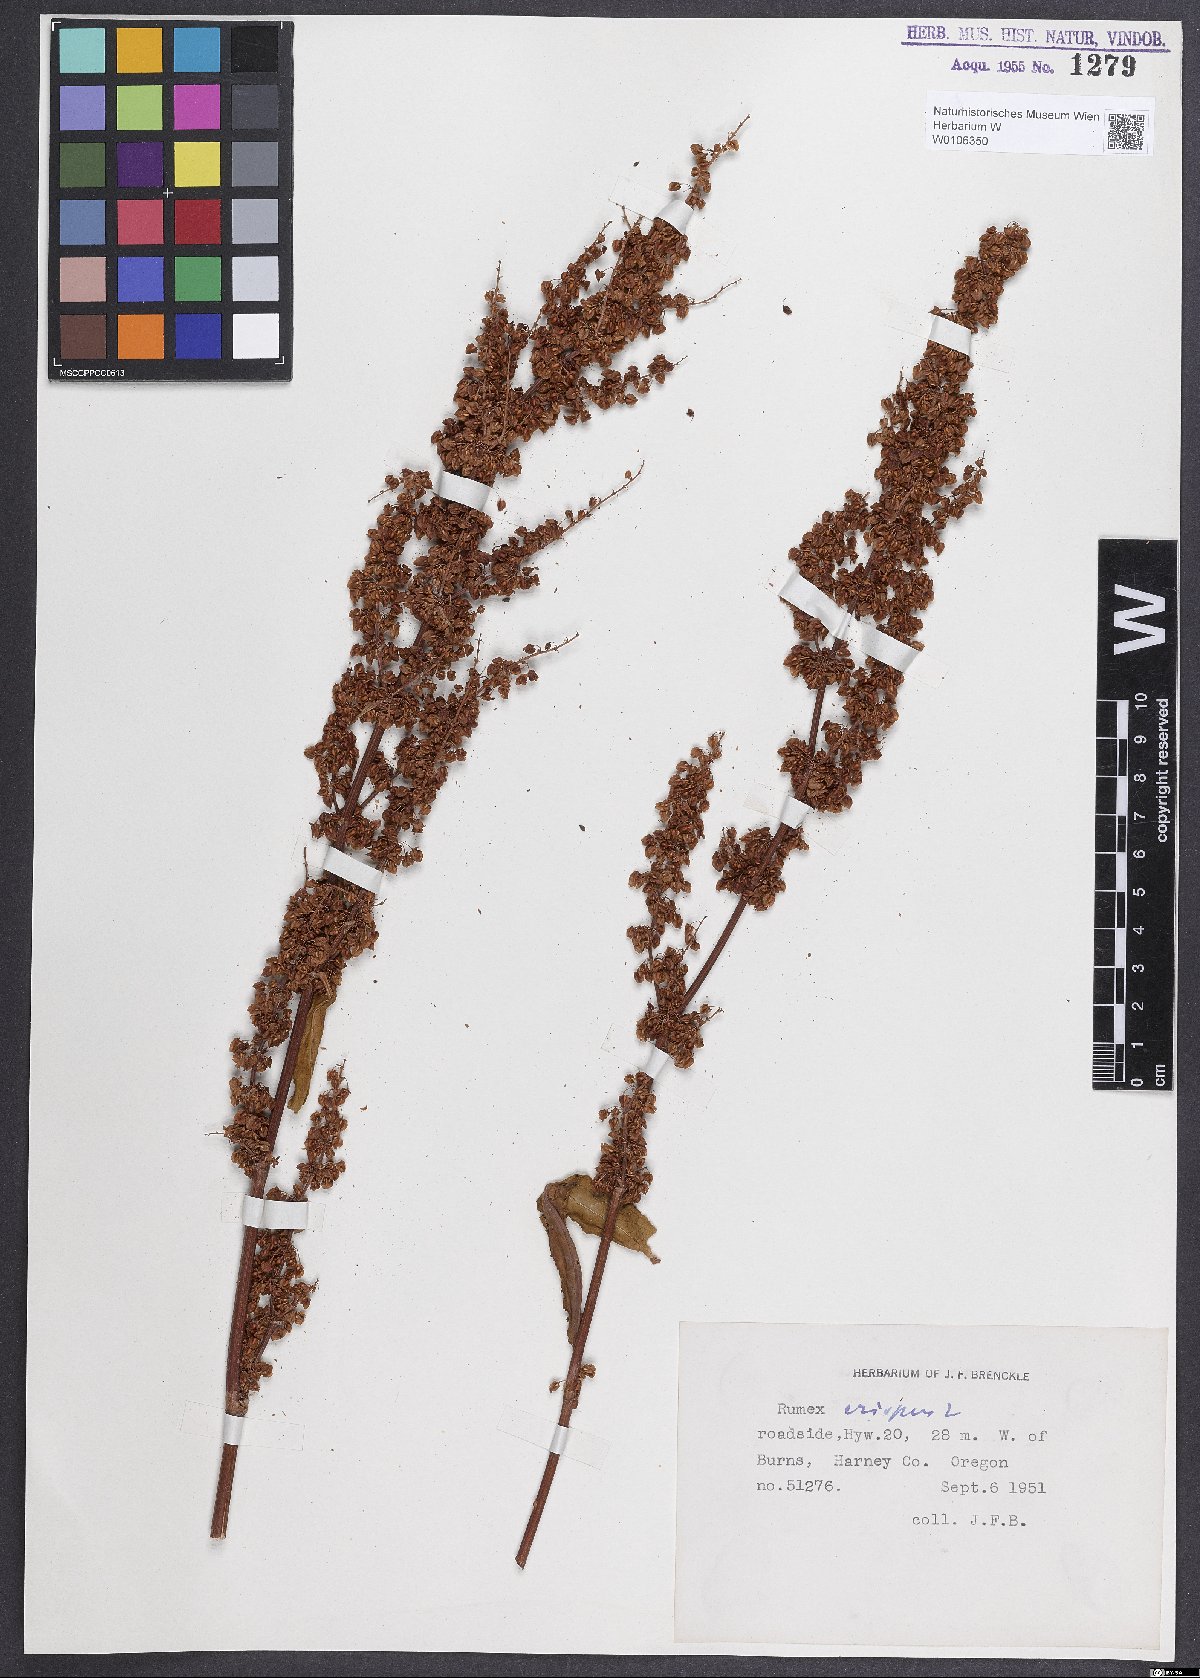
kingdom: Plantae
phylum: Tracheophyta
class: Magnoliopsida
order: Caryophyllales
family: Polygonaceae
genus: Rumex
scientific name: Rumex crispus
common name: Curled dock
